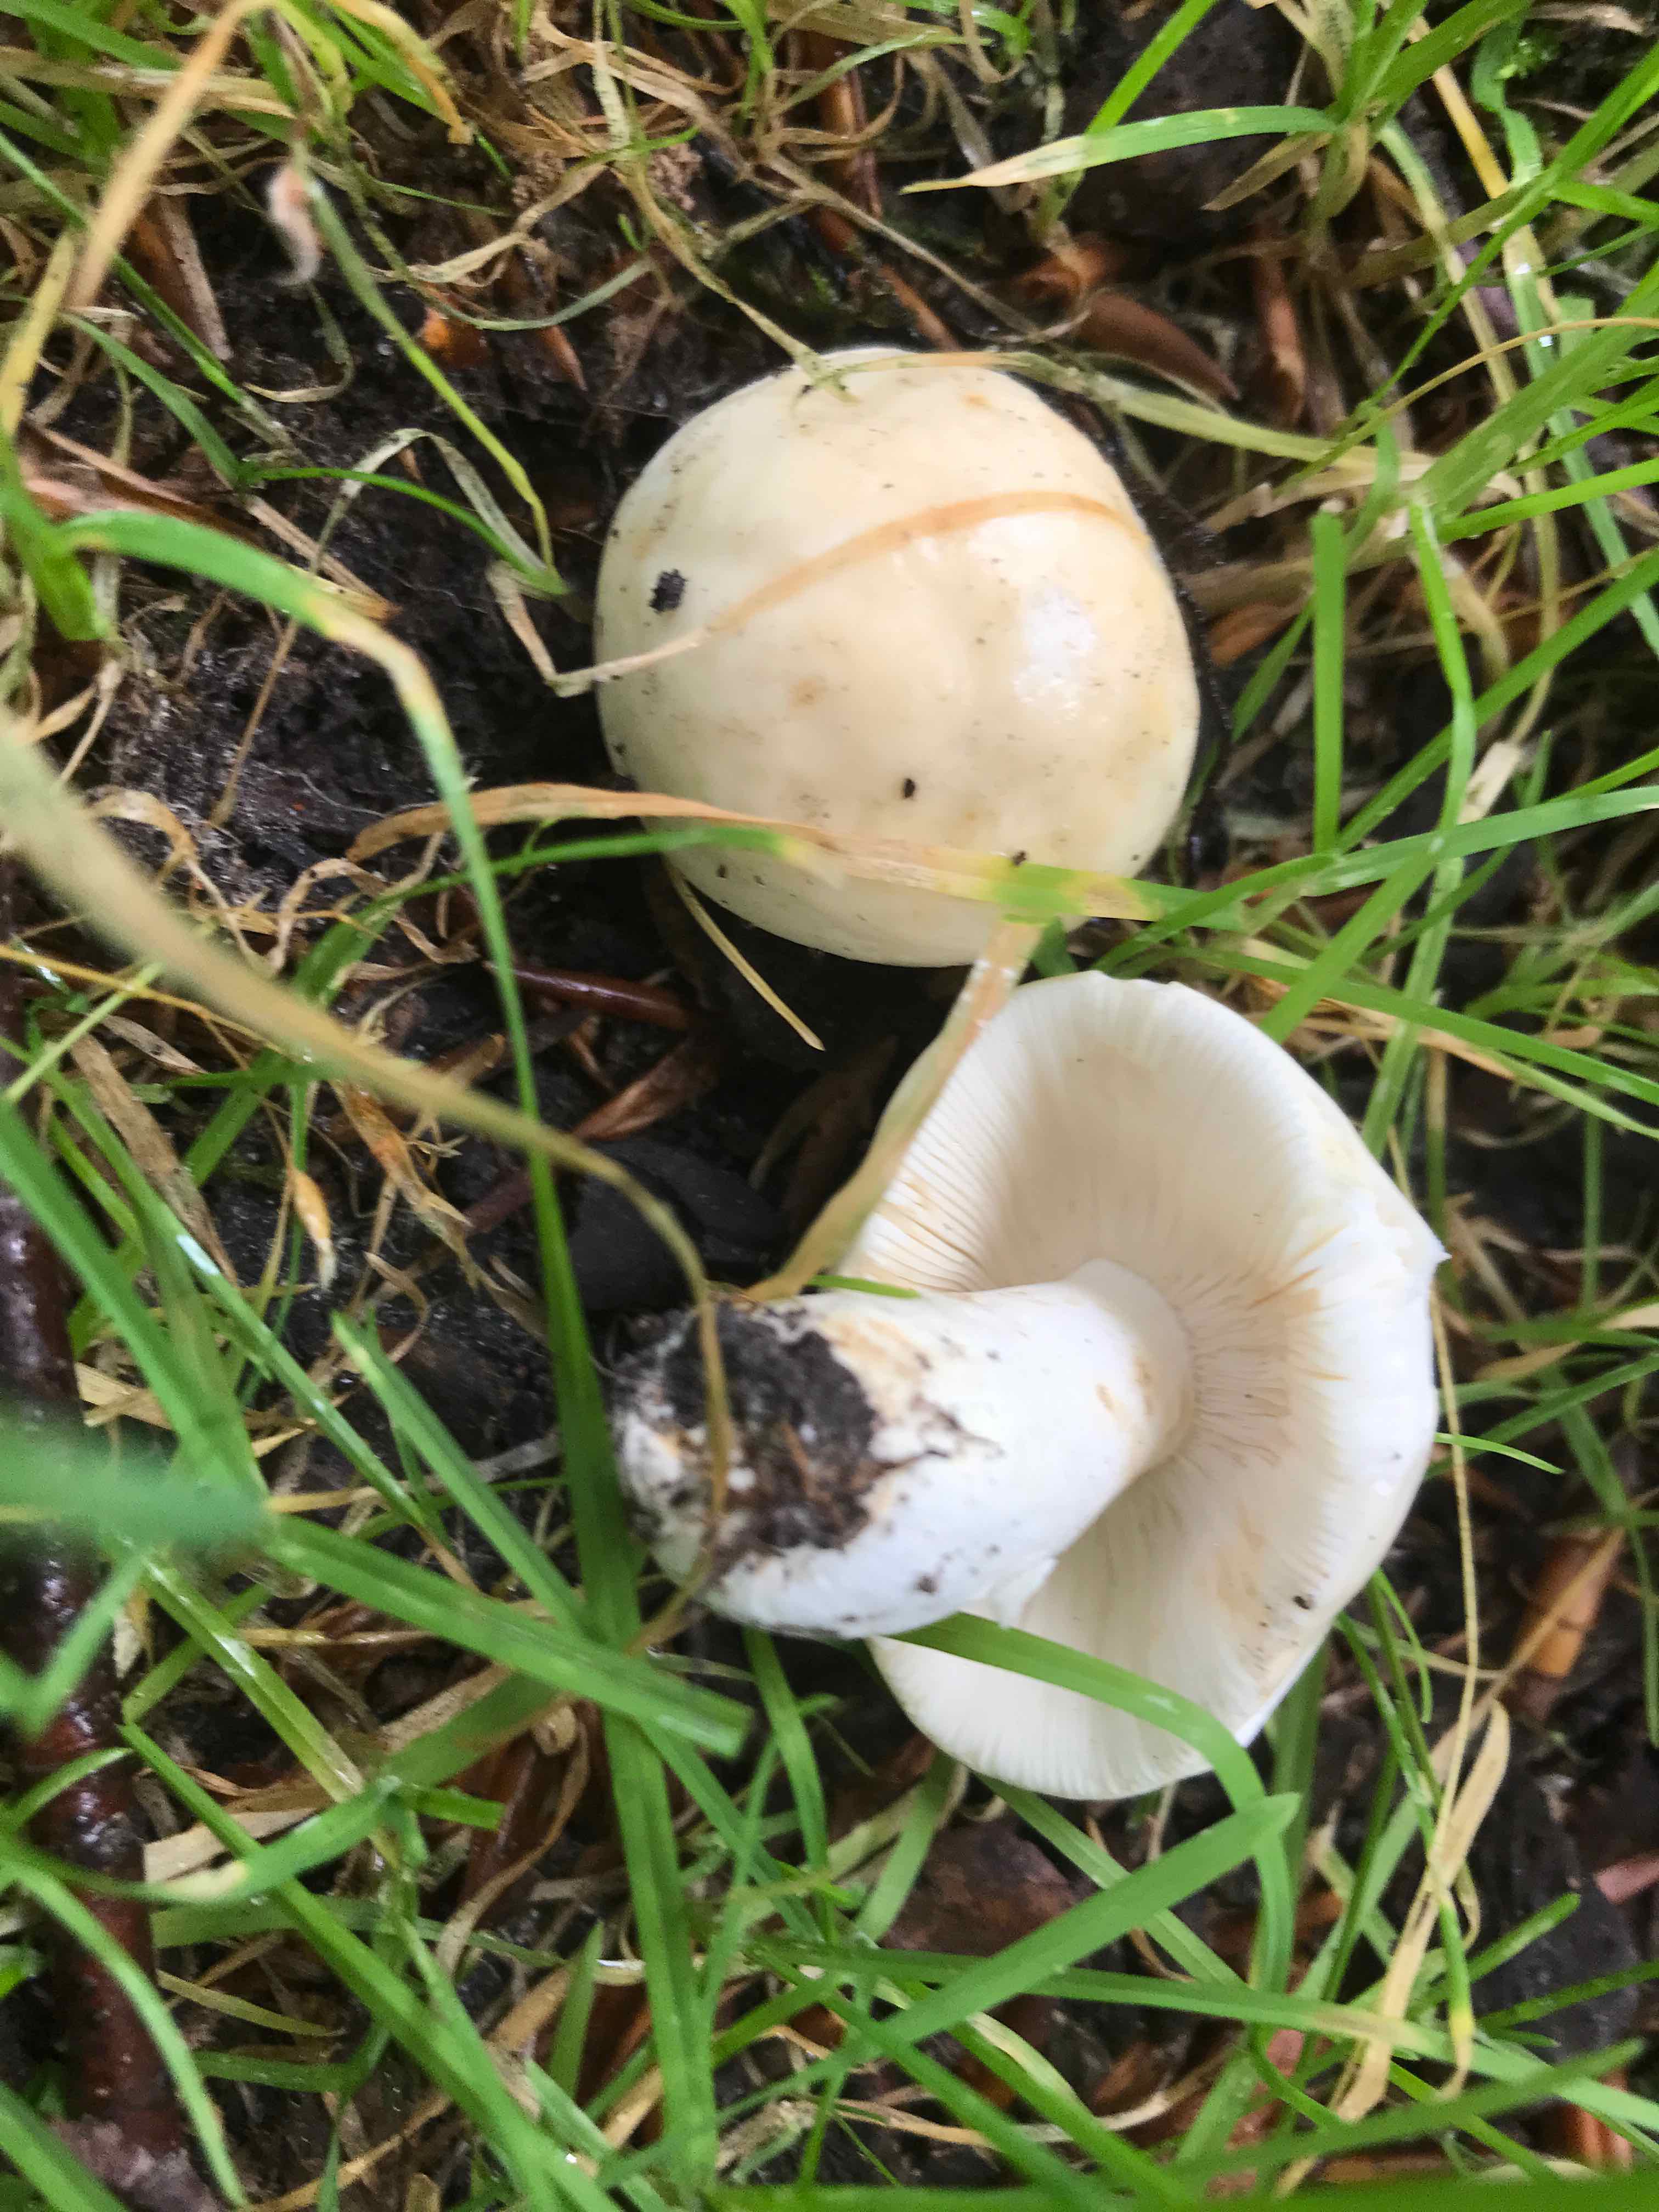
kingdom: Fungi
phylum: Basidiomycota
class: Agaricomycetes
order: Russulales
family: Russulaceae
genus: Russula
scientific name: Russula
